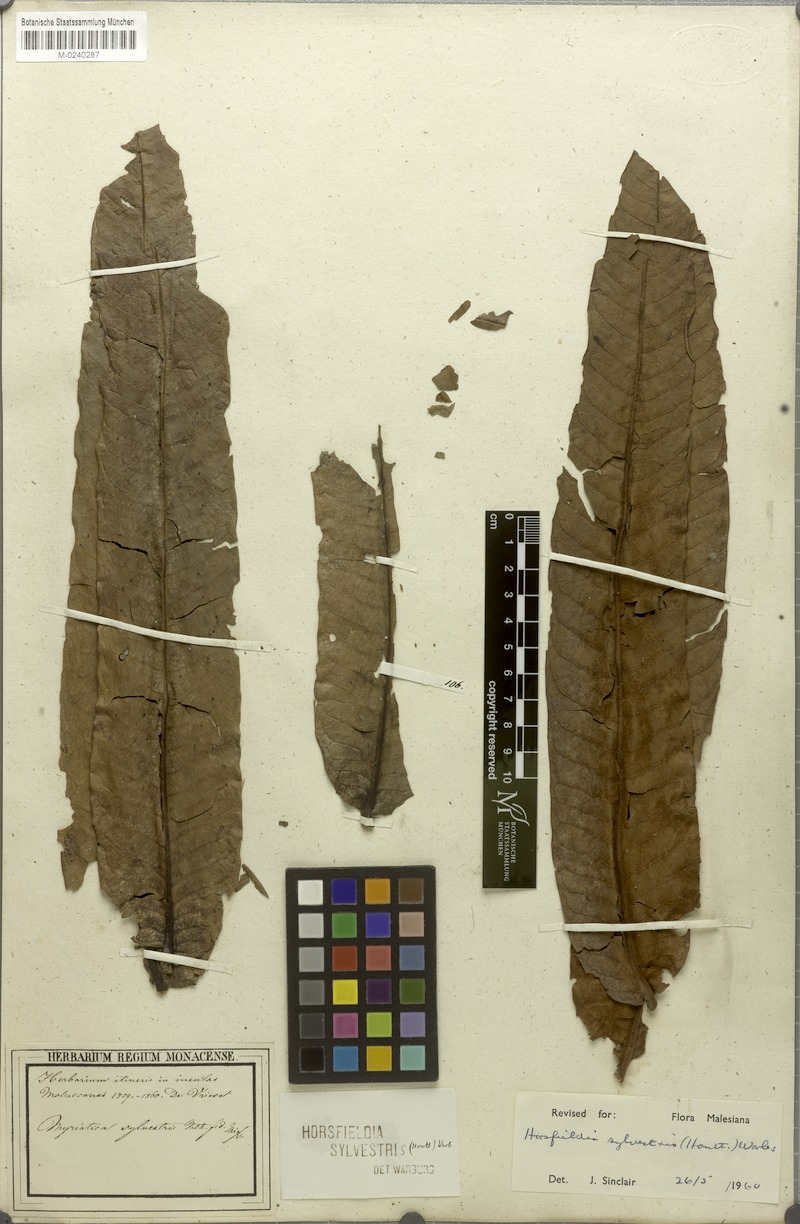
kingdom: Plantae
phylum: Tracheophyta
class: Magnoliopsida
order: Magnoliales
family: Myristicaceae
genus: Horsfieldia
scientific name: Horsfieldia sylvestris
